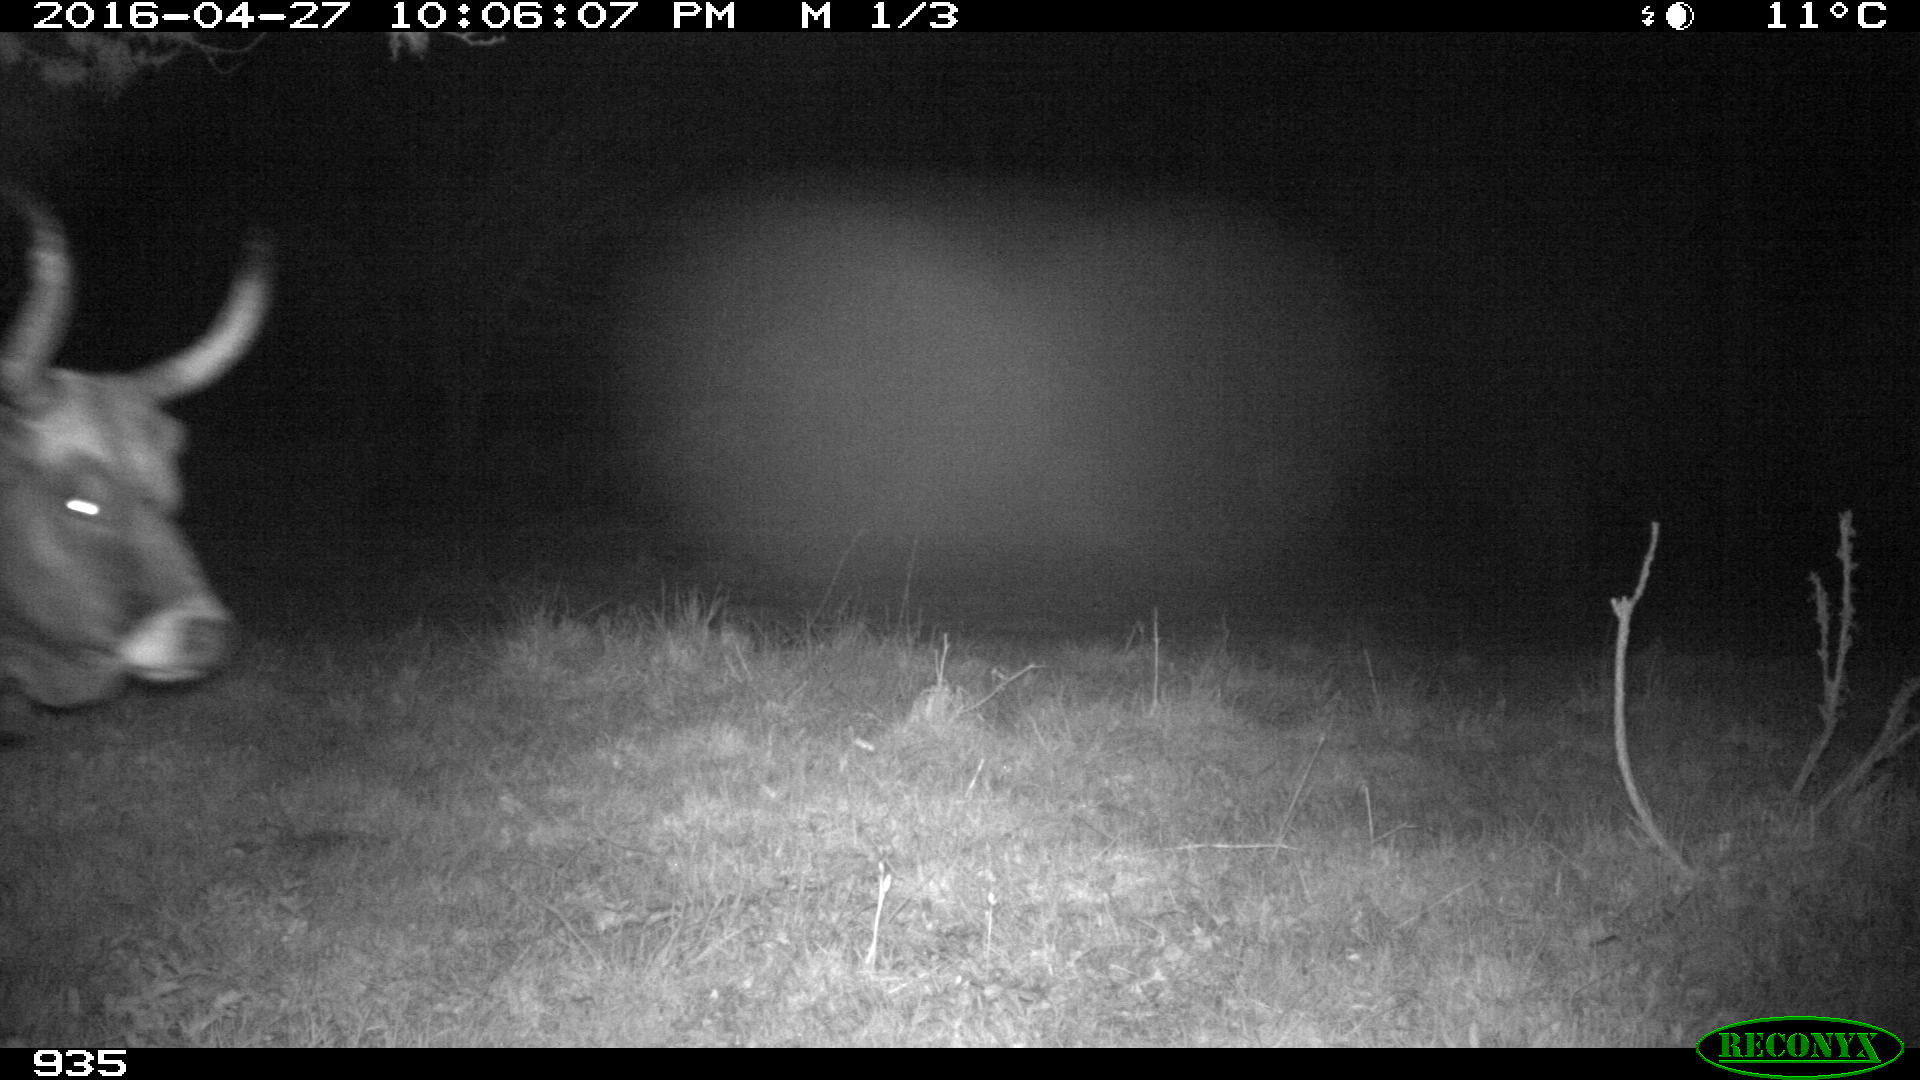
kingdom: Animalia
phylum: Chordata
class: Mammalia
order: Artiodactyla
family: Bovidae
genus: Bos
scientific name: Bos taurus
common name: Domesticated cattle
